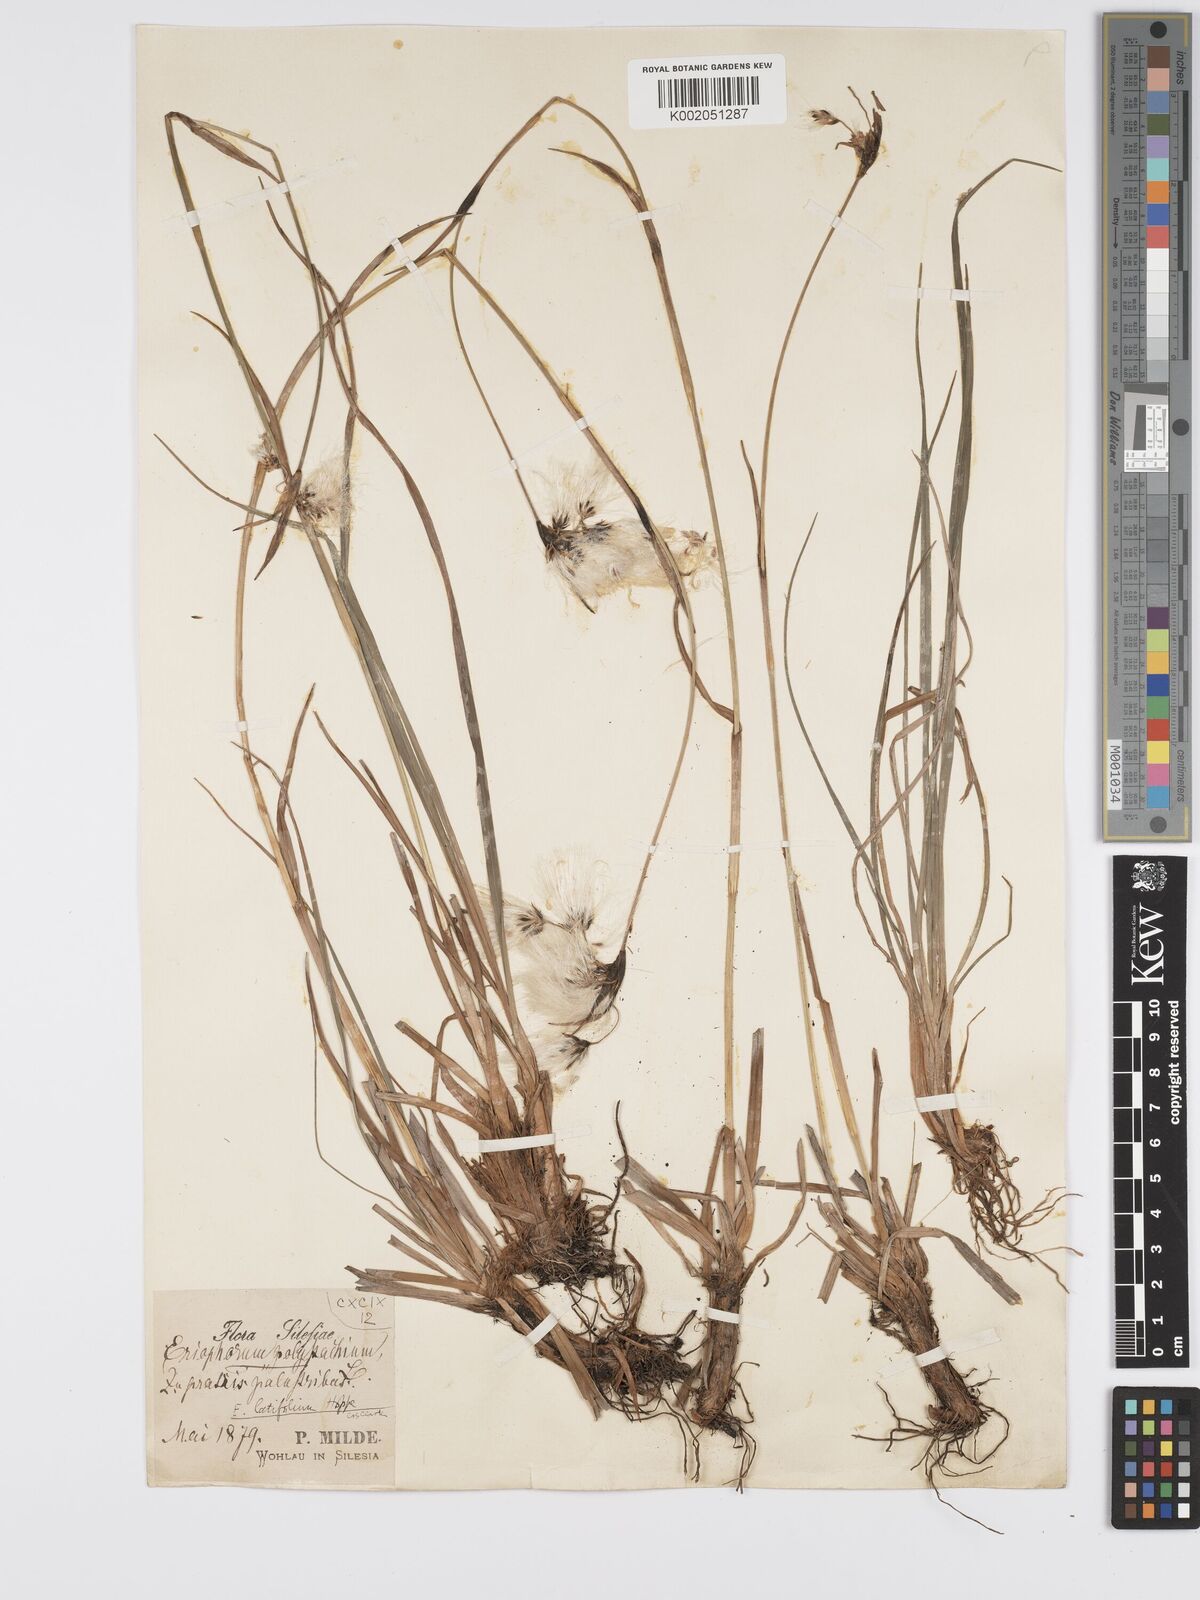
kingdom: Plantae
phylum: Tracheophyta
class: Liliopsida
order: Poales
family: Cyperaceae
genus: Eriophorum
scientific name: Eriophorum latifolium
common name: Broad-leaved cottongrass
